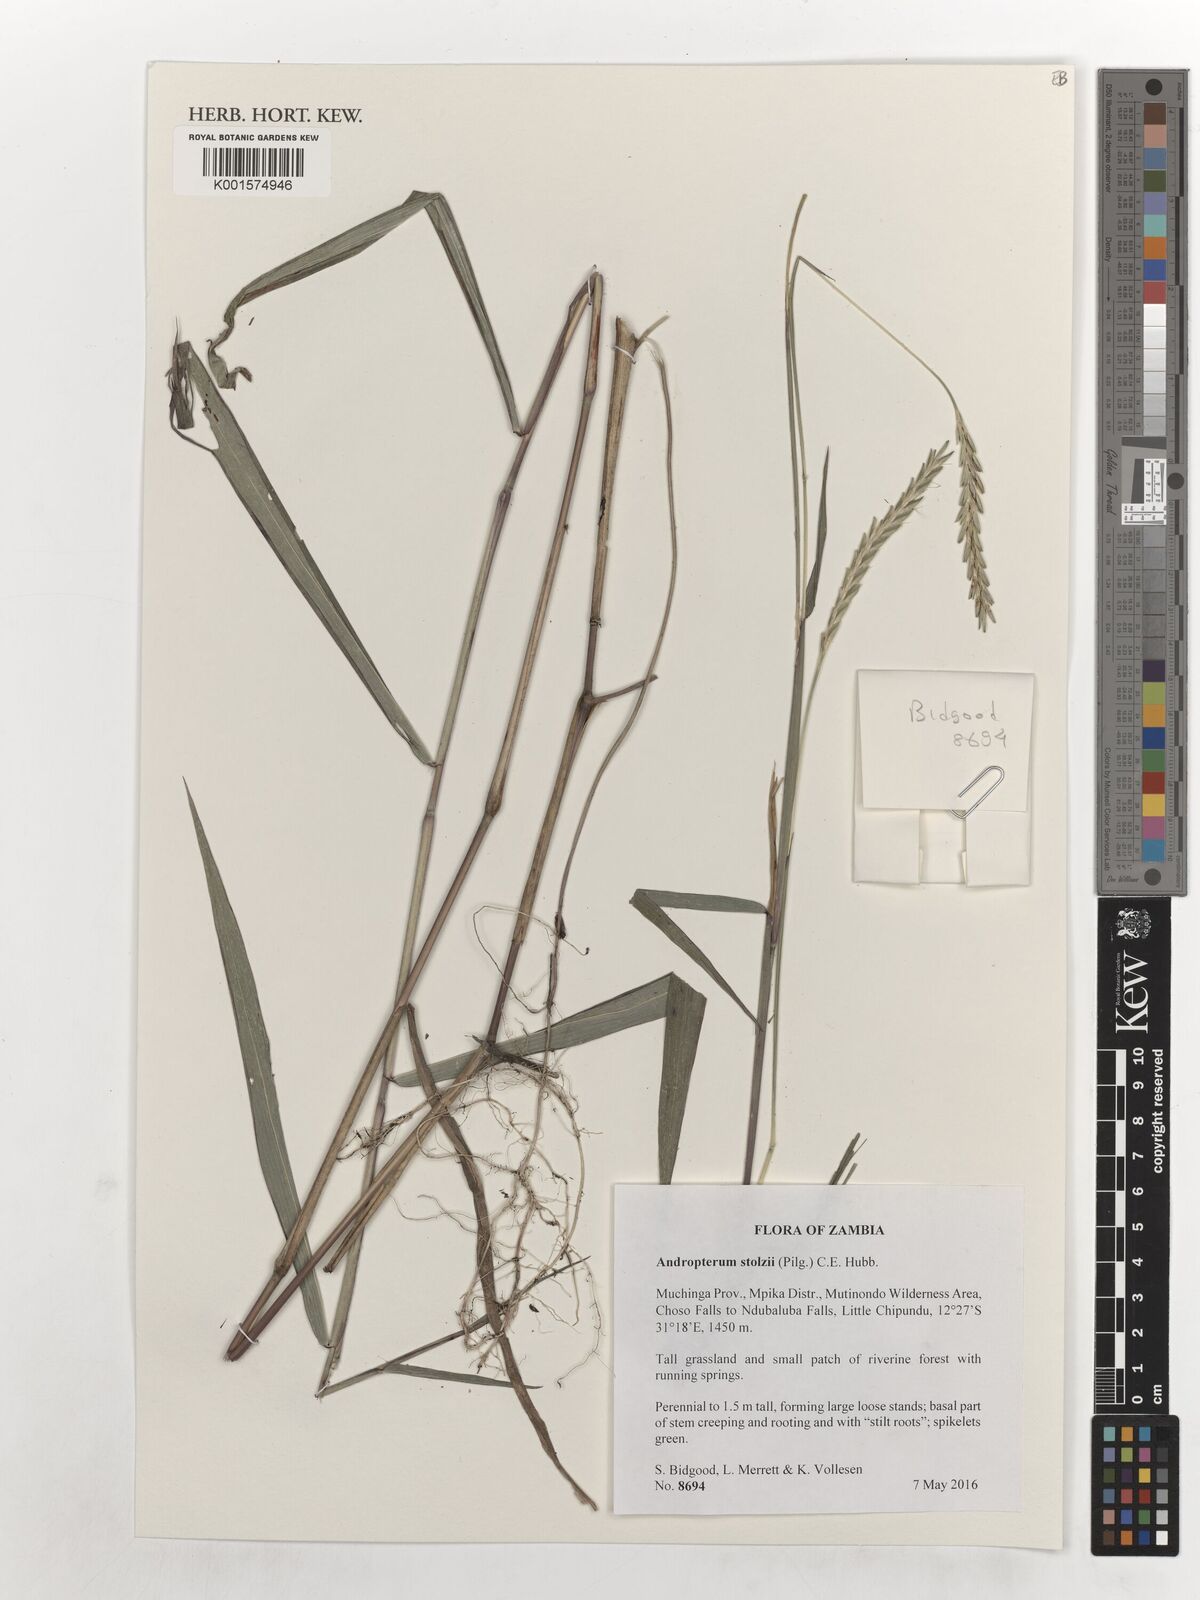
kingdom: Plantae
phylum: Tracheophyta
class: Liliopsida
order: Poales
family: Poaceae
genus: Andropterum
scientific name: Andropterum stolzii
